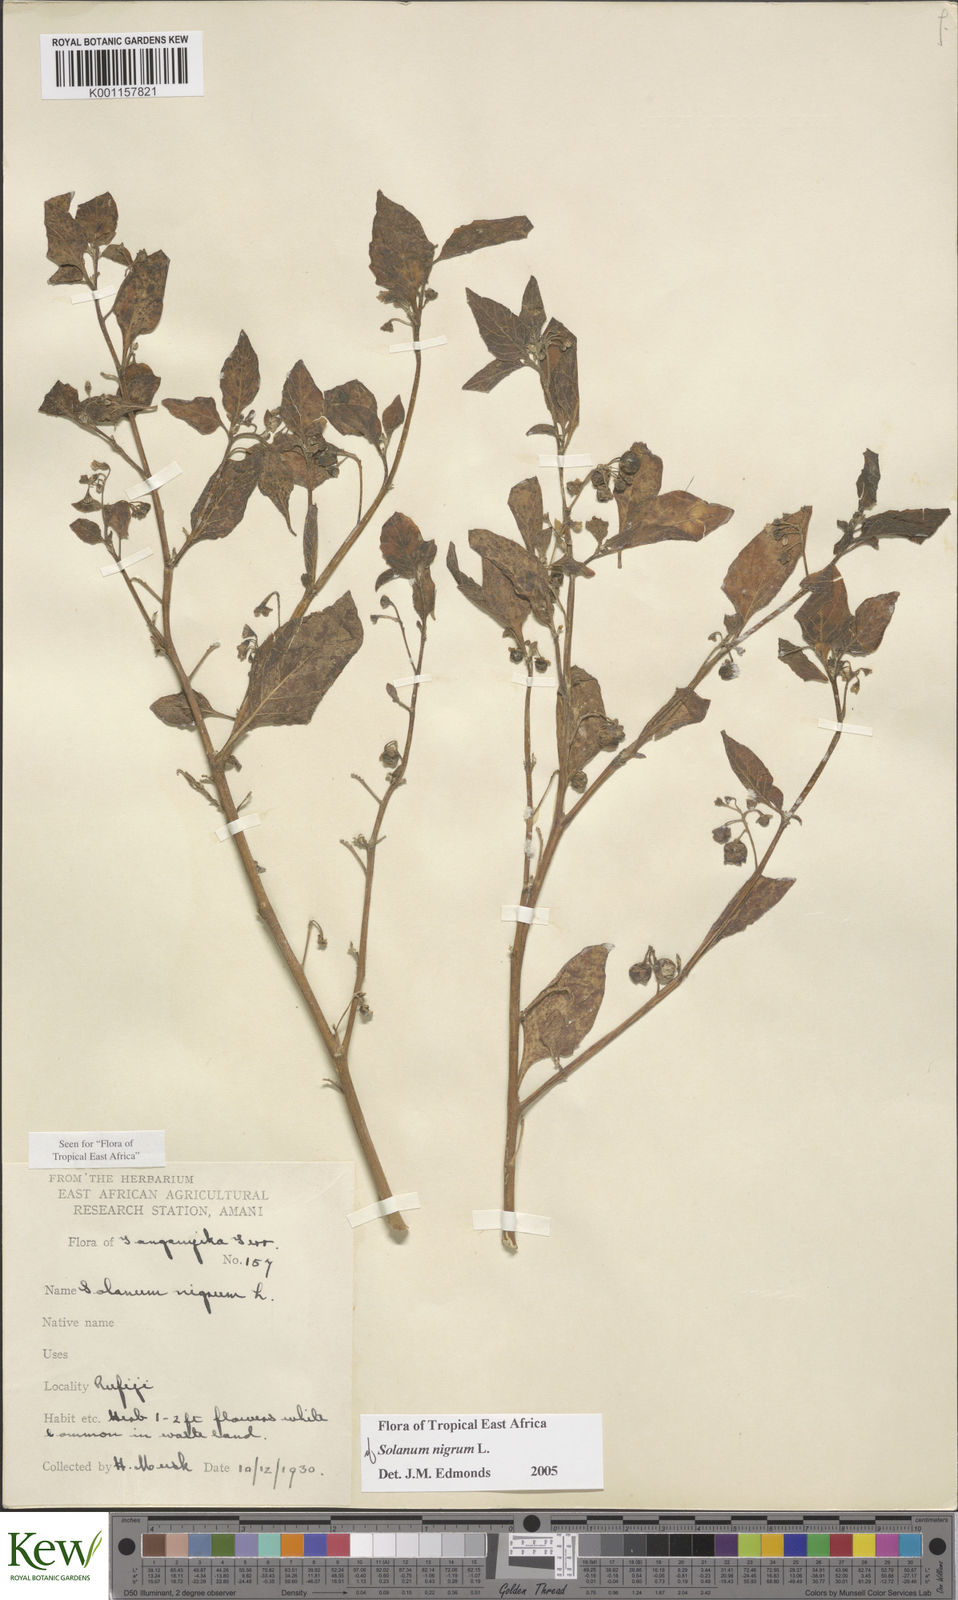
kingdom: Plantae
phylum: Tracheophyta
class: Magnoliopsida
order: Solanales
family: Solanaceae
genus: Solanum
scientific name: Solanum nigrum
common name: Black nightshade
